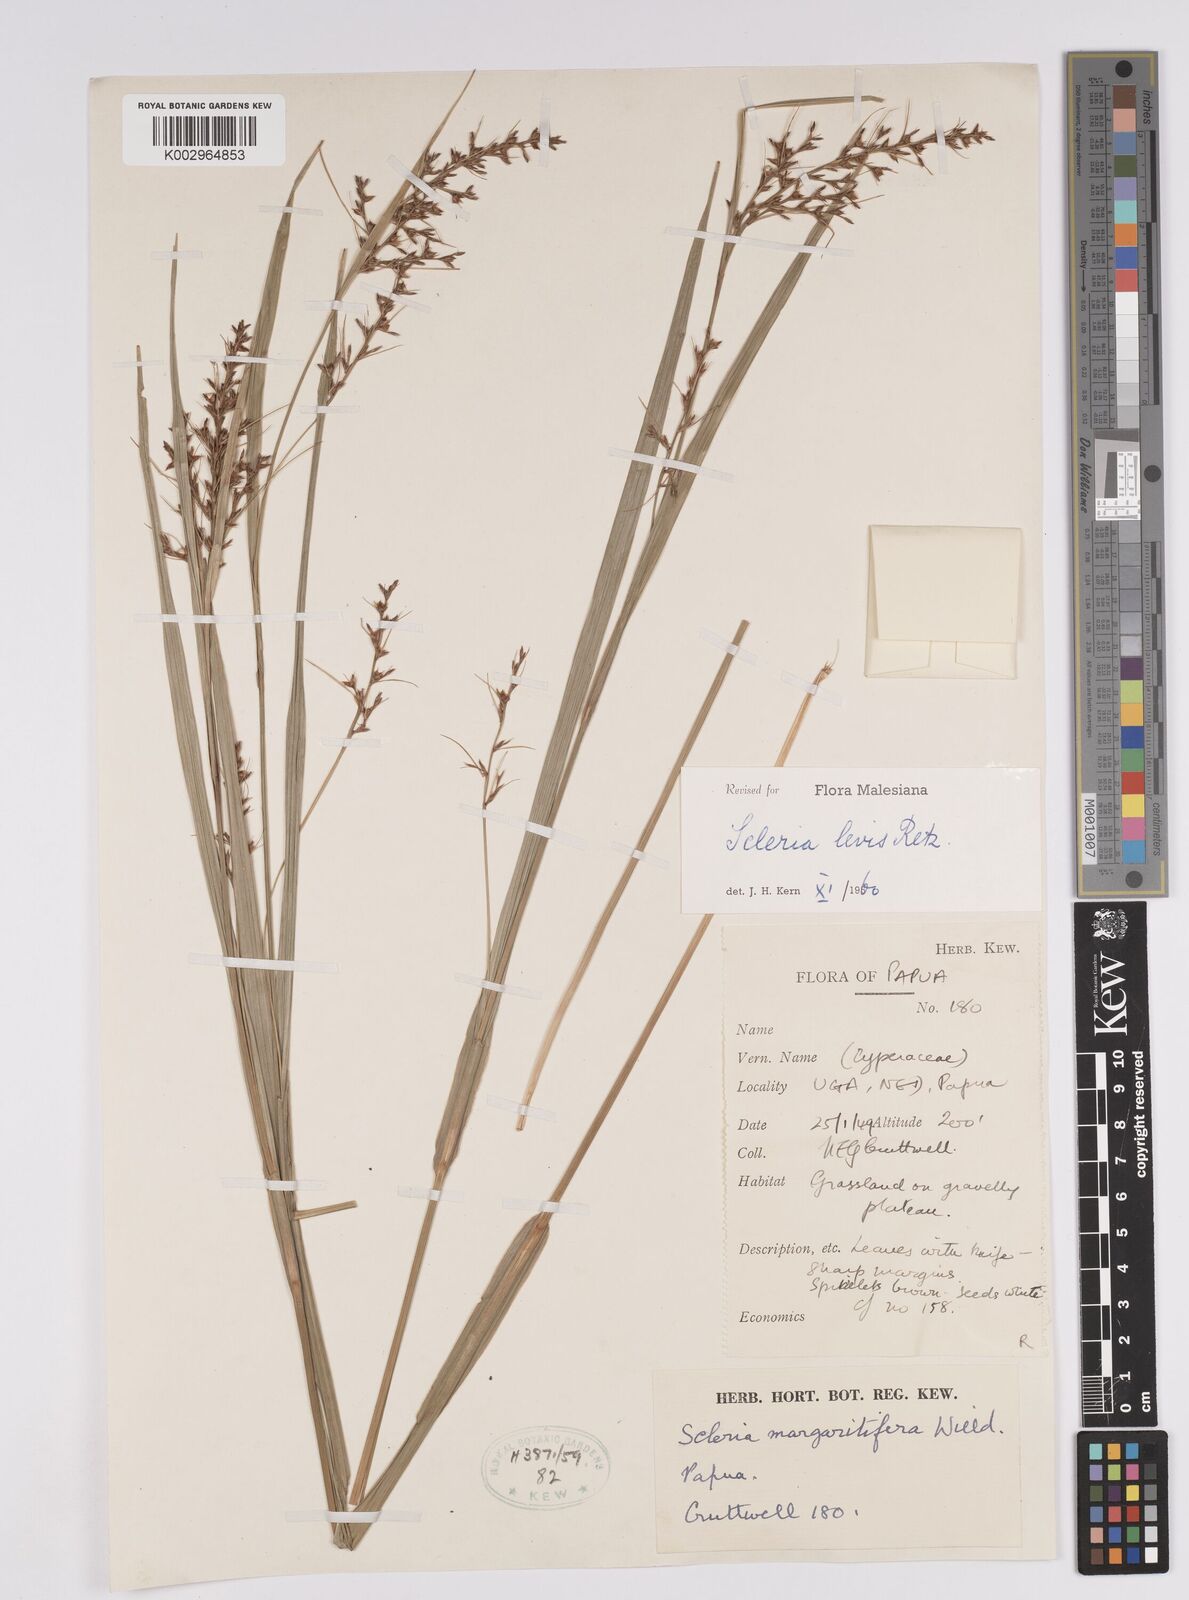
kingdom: Plantae
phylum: Tracheophyta
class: Liliopsida
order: Poales
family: Cyperaceae
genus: Scleria
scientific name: Scleria
